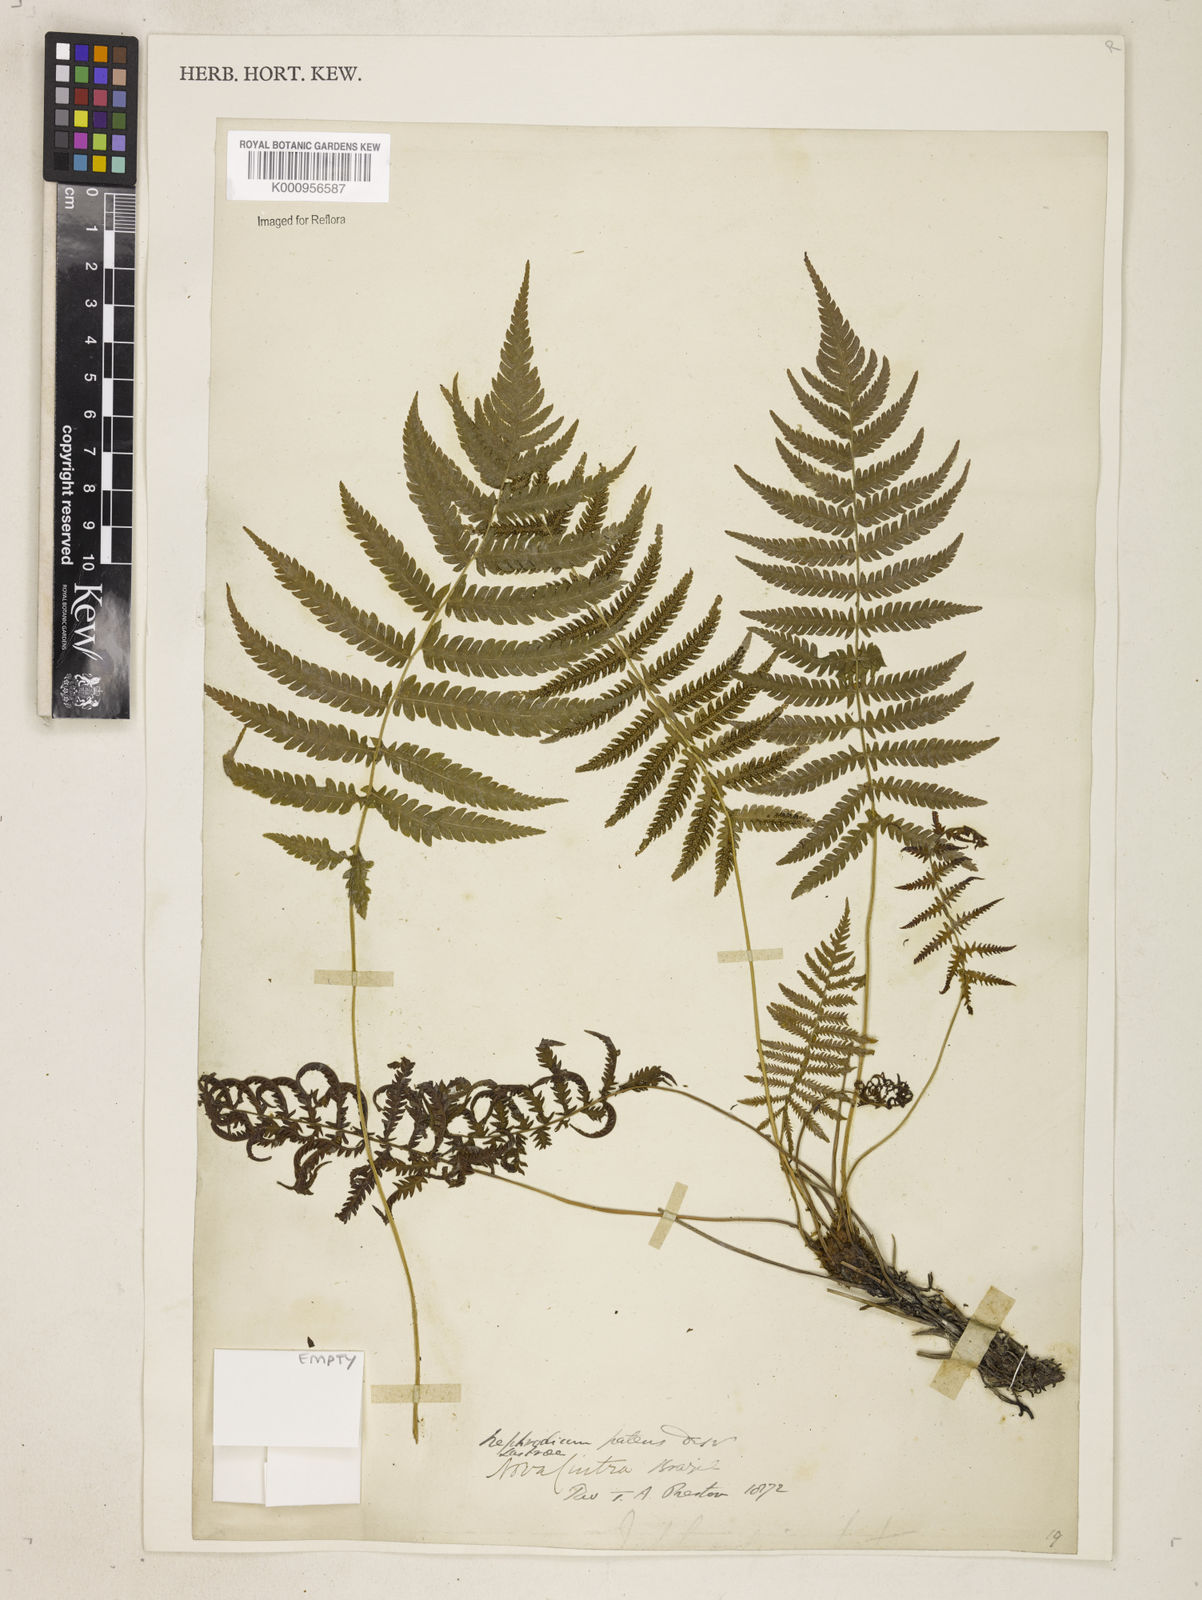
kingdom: Plantae
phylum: Tracheophyta
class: Polypodiopsida
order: Polypodiales
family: Thelypteridaceae
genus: Pelazoneuron
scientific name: Pelazoneuron patens
